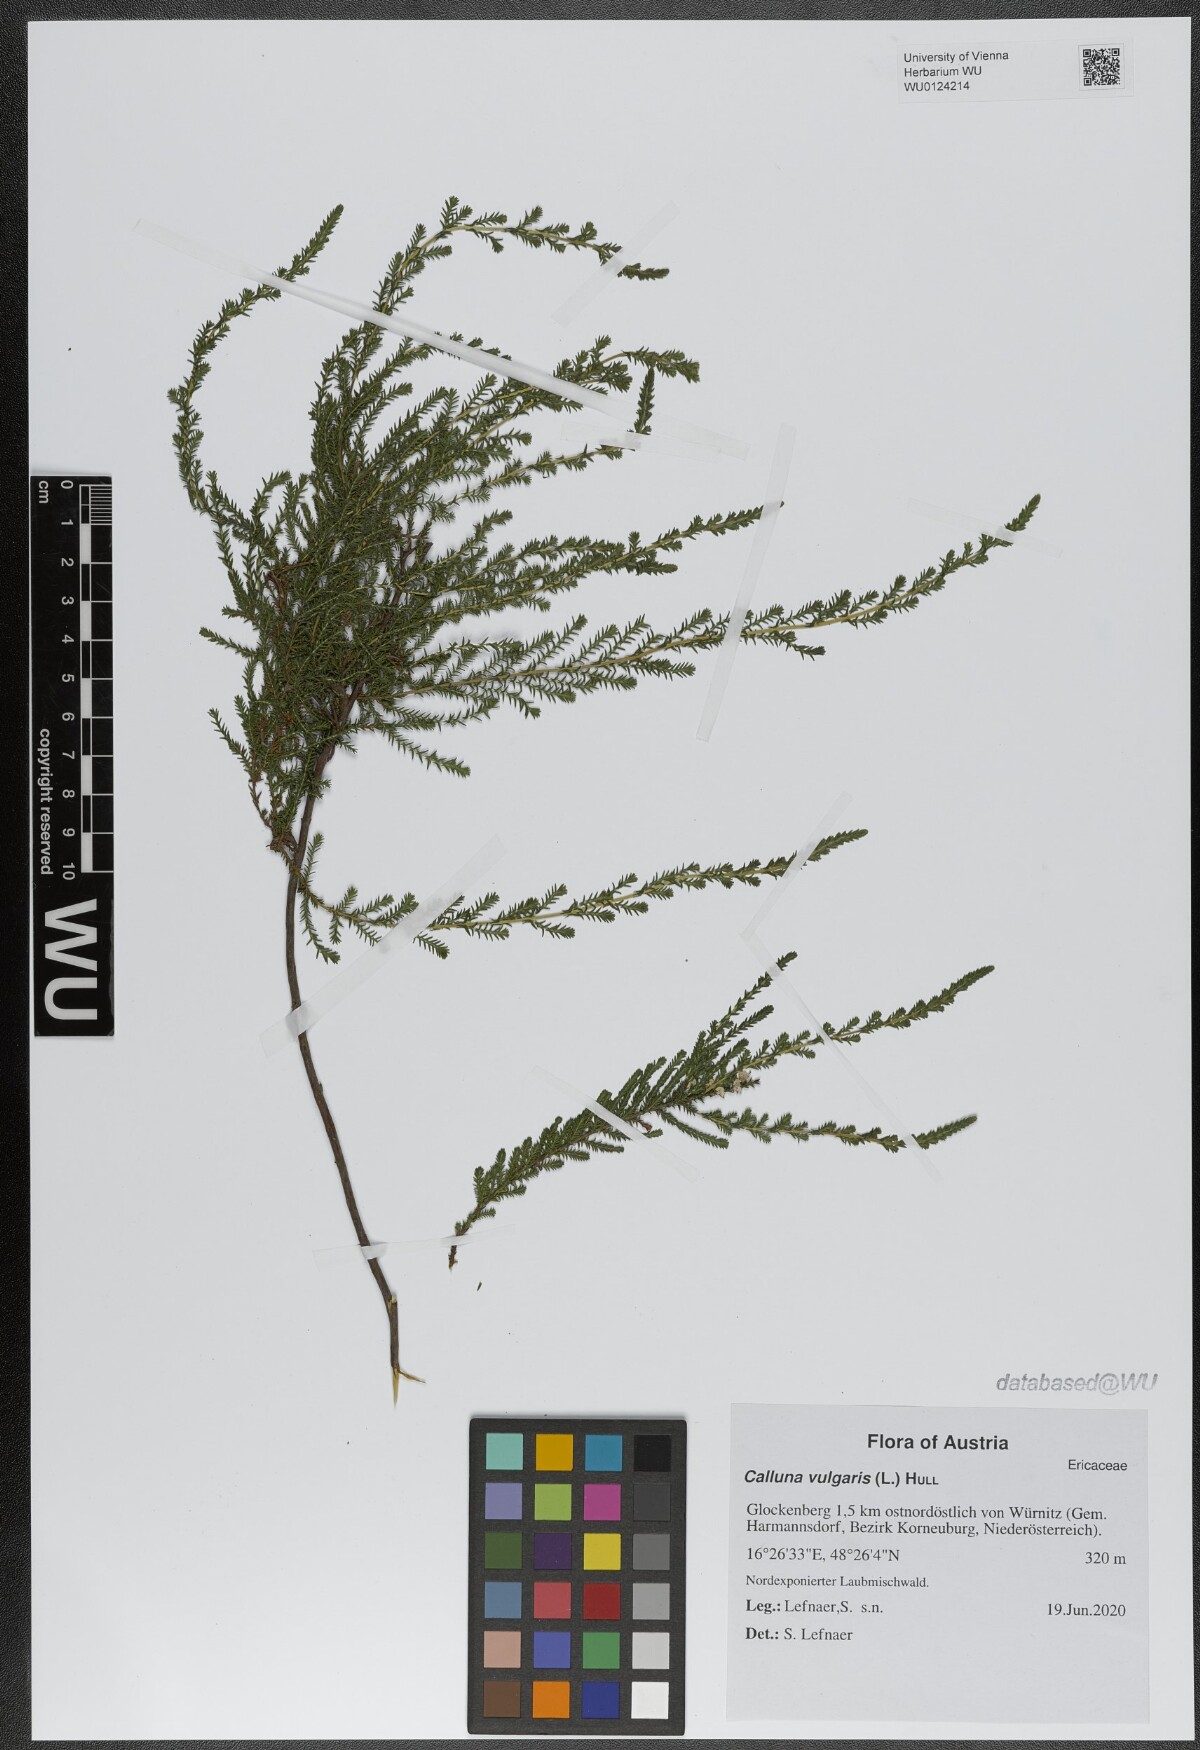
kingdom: Plantae
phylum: Tracheophyta
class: Magnoliopsida
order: Ericales
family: Ericaceae
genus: Calluna
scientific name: Calluna vulgaris
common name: Heather
